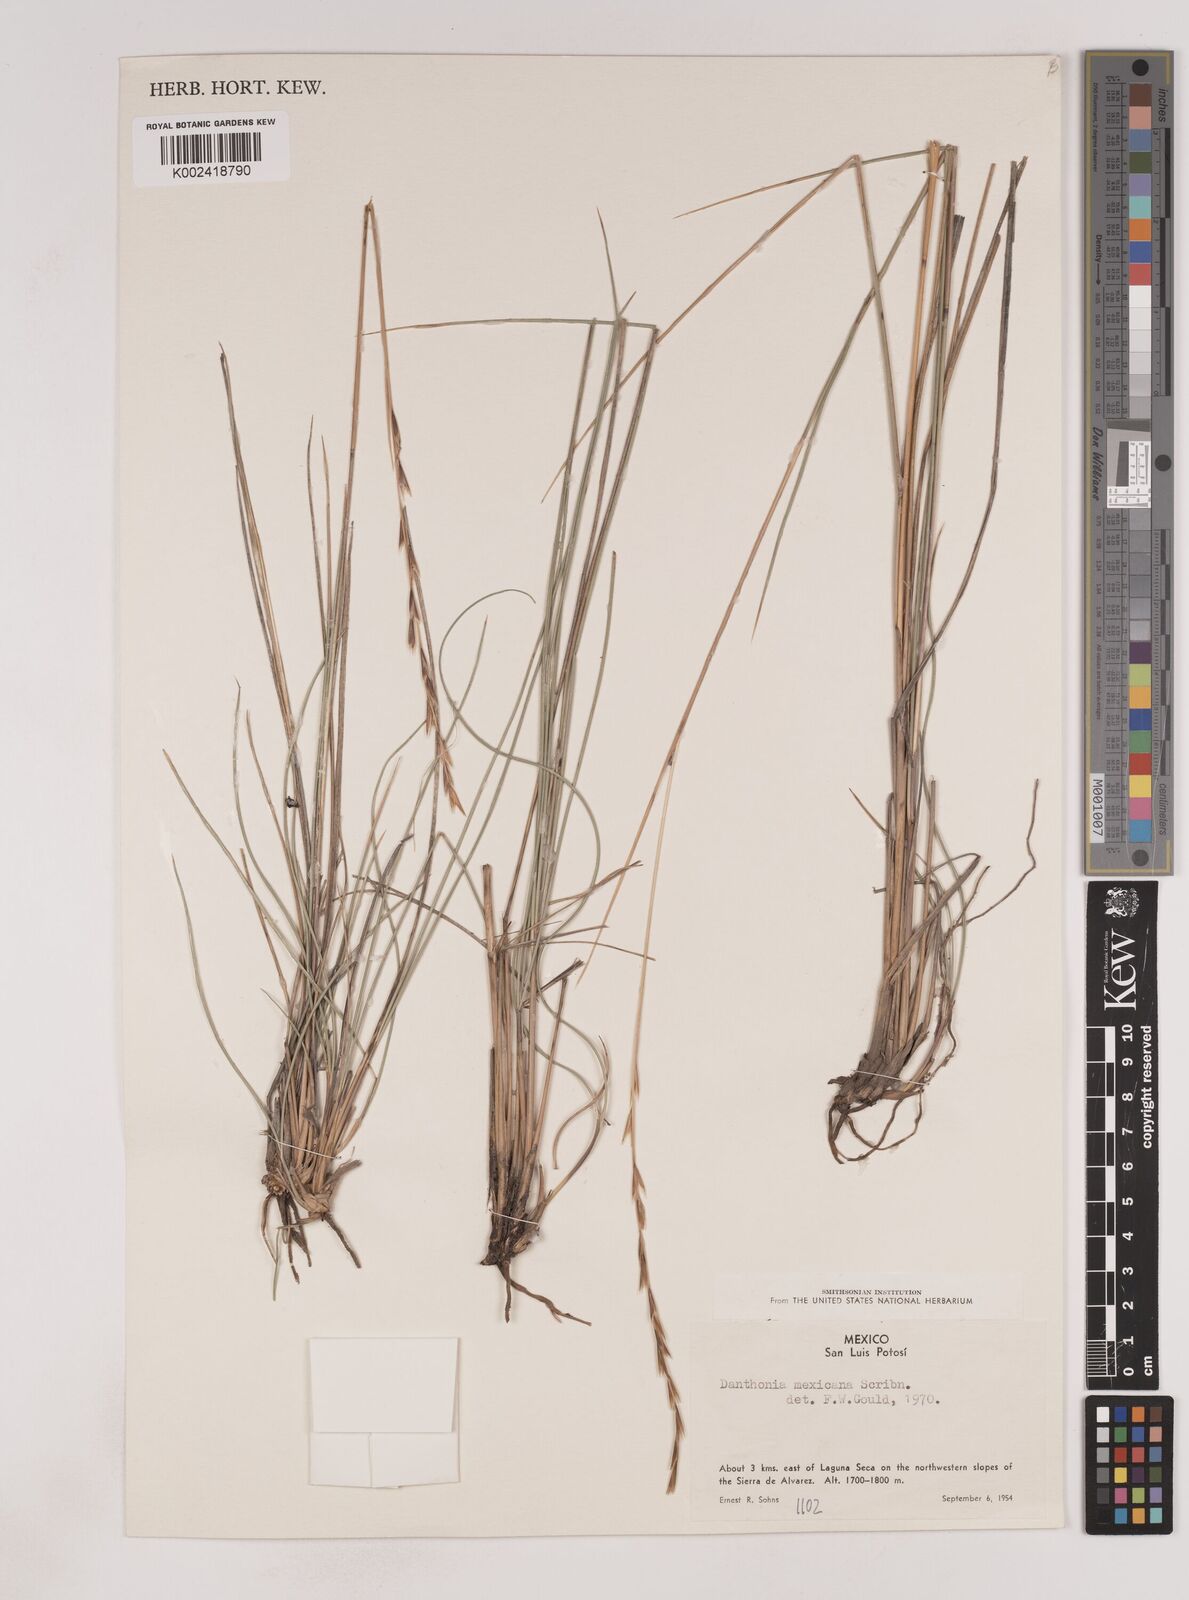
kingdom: Plantae
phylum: Tracheophyta
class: Liliopsida
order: Poales
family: Poaceae
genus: Metcalfia
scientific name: Metcalfia mexicana
